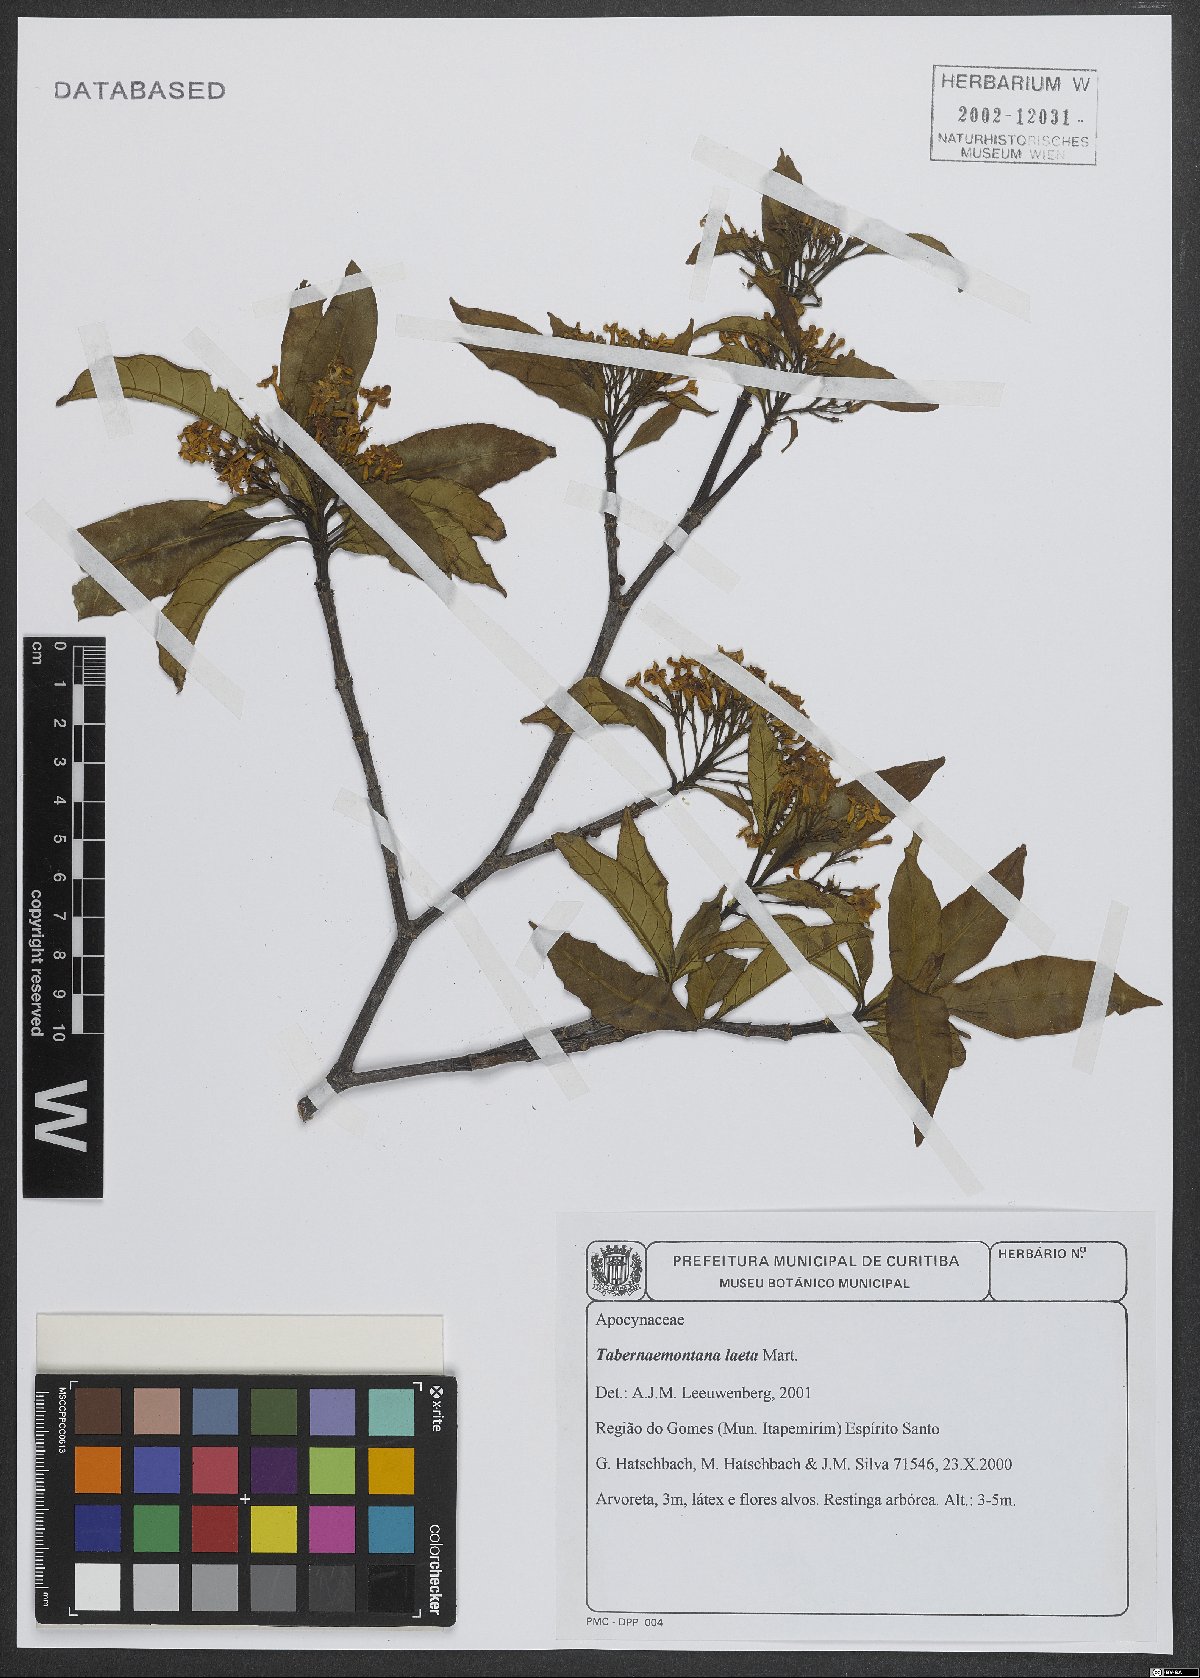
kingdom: Plantae
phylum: Tracheophyta
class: Magnoliopsida
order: Gentianales
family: Apocynaceae
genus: Tabernaemontana
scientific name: Tabernaemontana laeta
